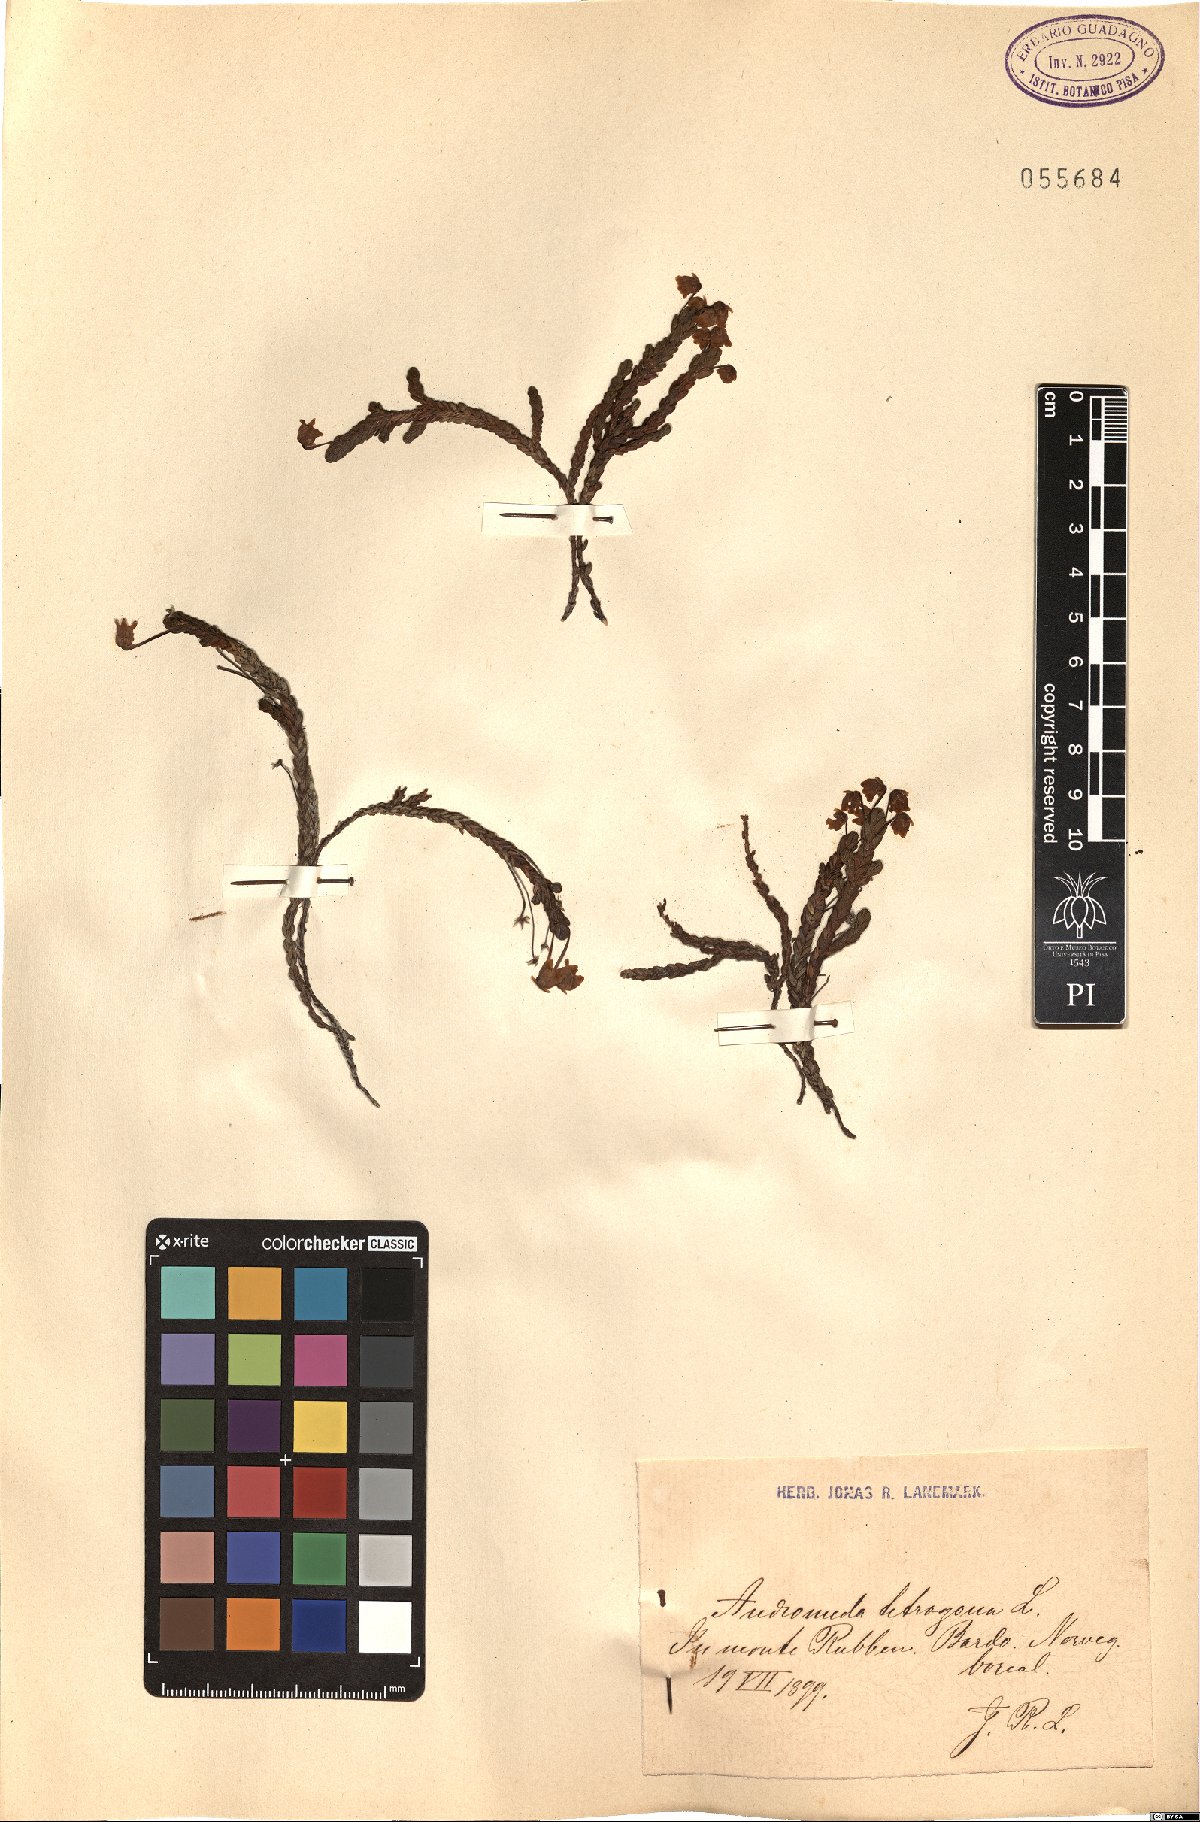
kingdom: Plantae
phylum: Tracheophyta
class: Magnoliopsida
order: Ericales
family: Ericaceae
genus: Cassiope
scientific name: Cassiope tetragona
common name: Arctic bell heather
